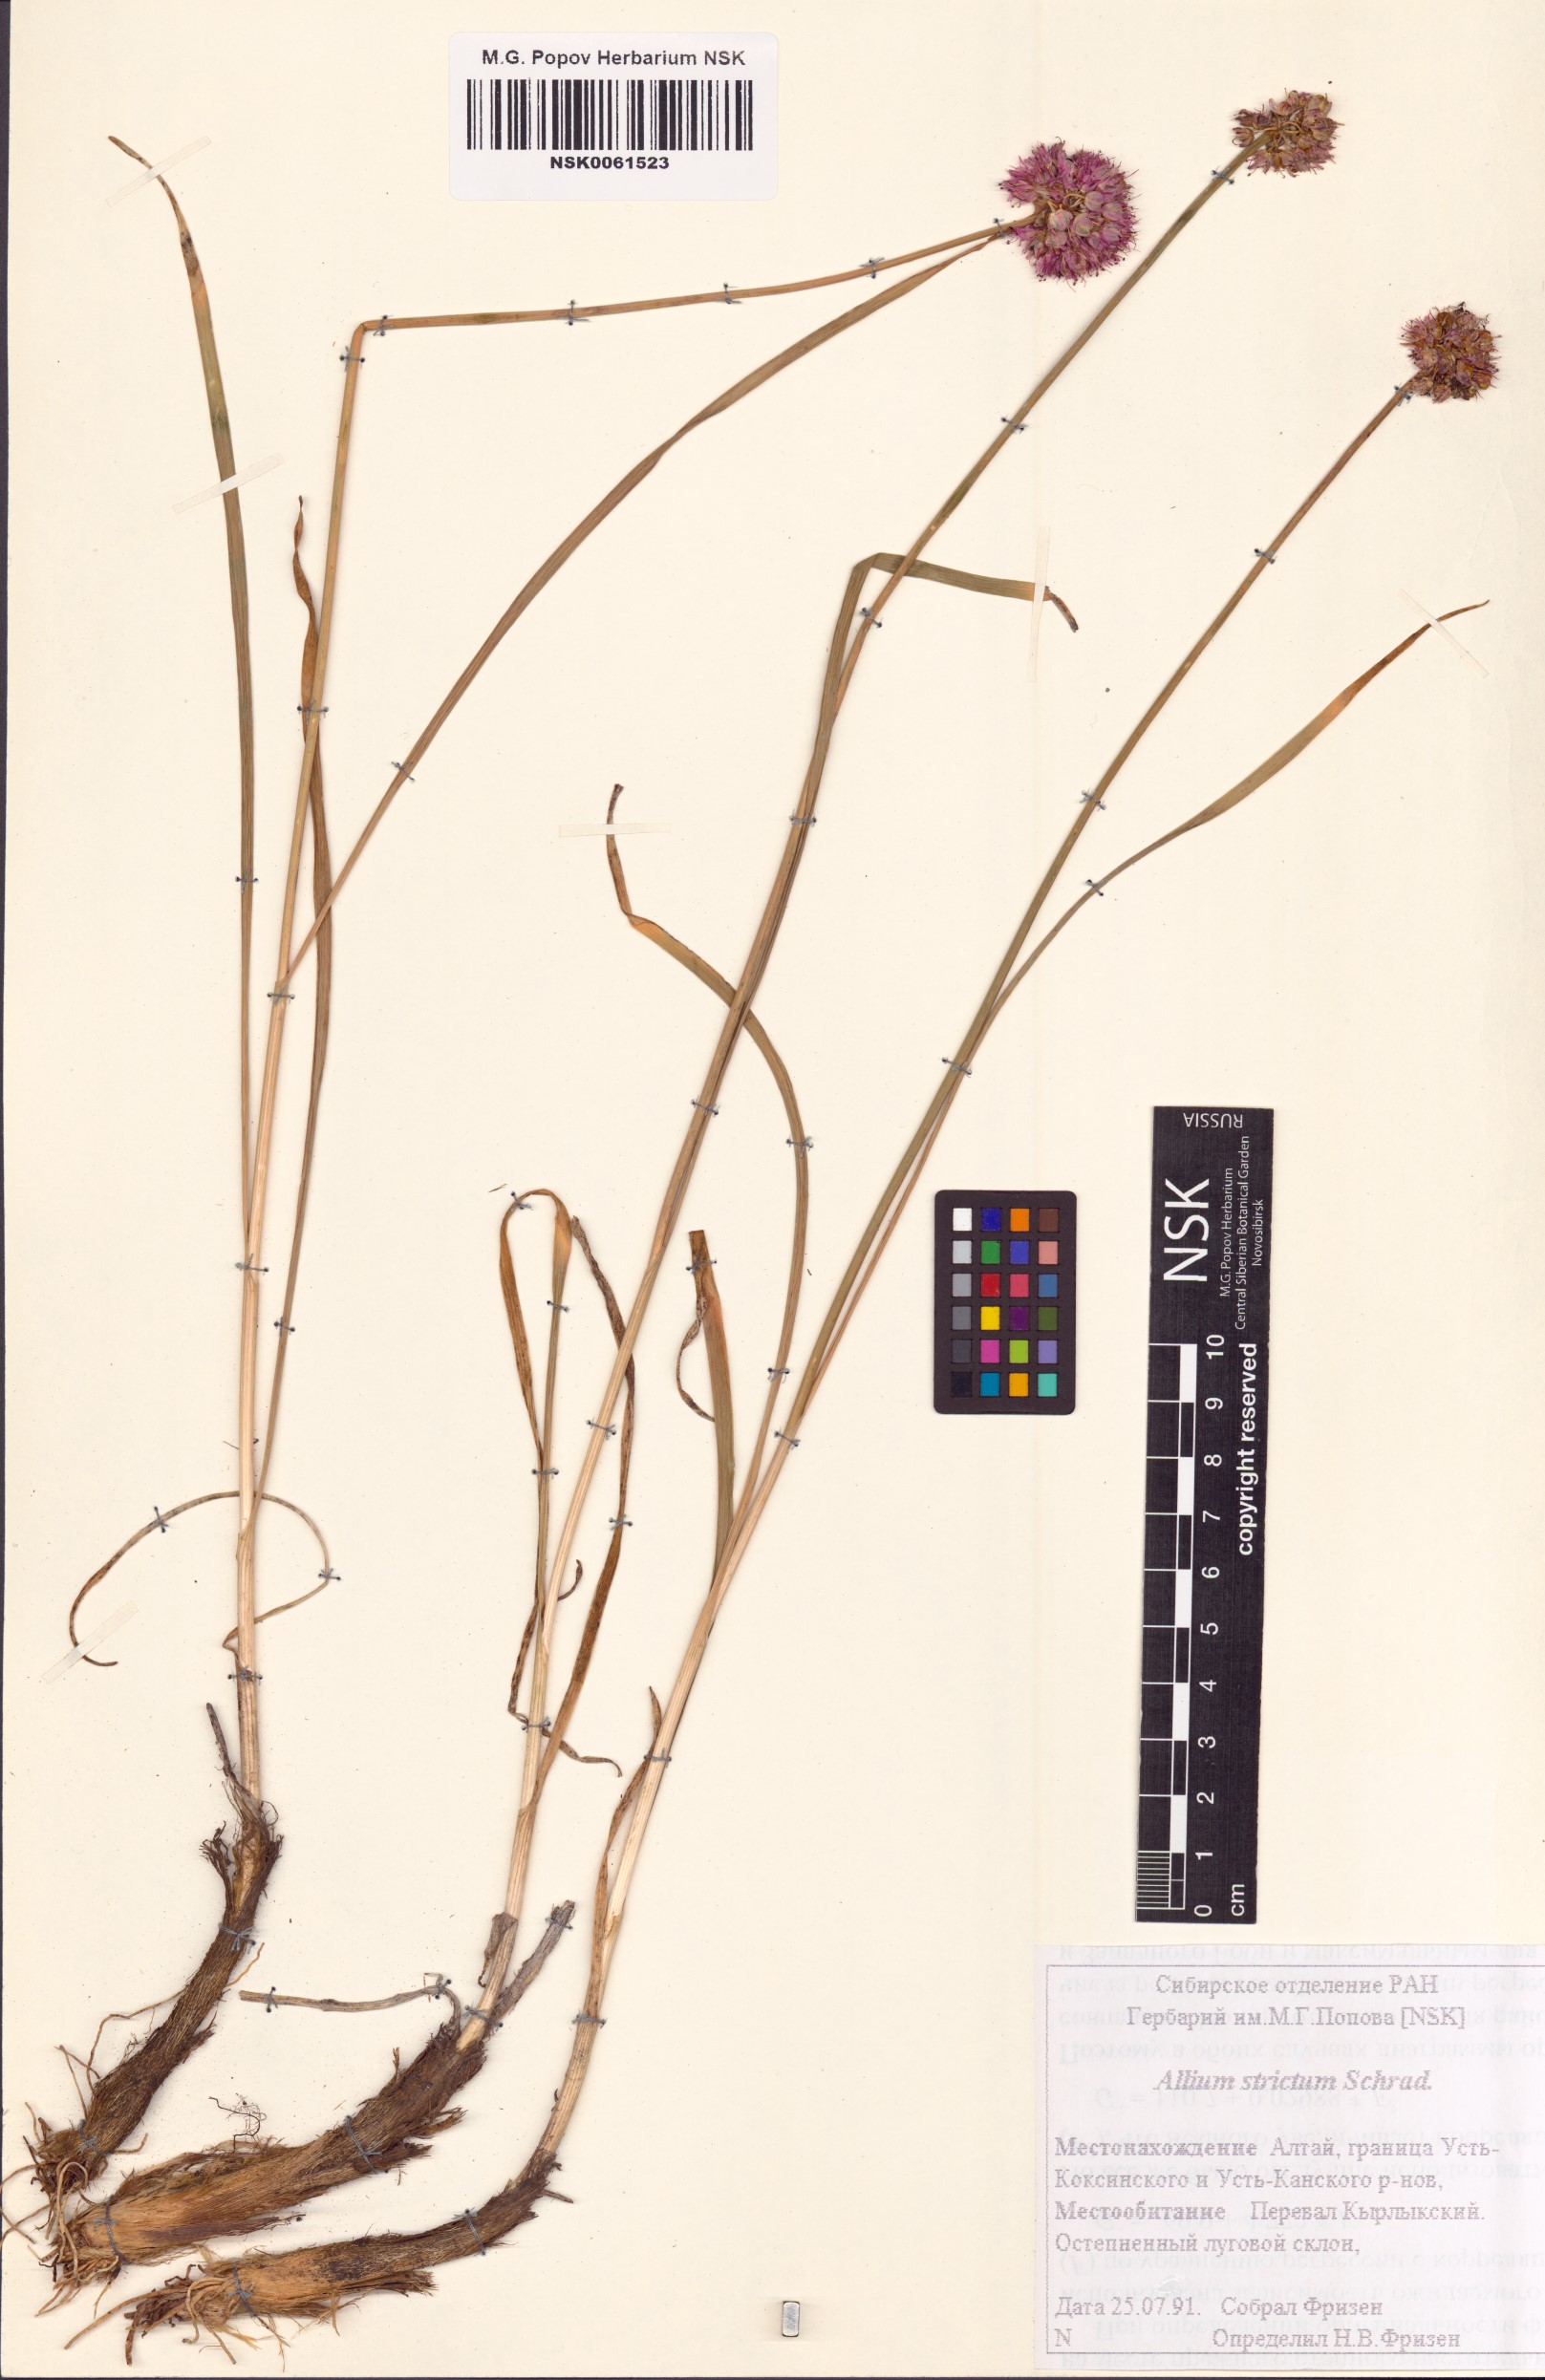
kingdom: Plantae
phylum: Tracheophyta
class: Liliopsida
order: Asparagales
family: Amaryllidaceae
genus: Allium
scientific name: Allium strictum
